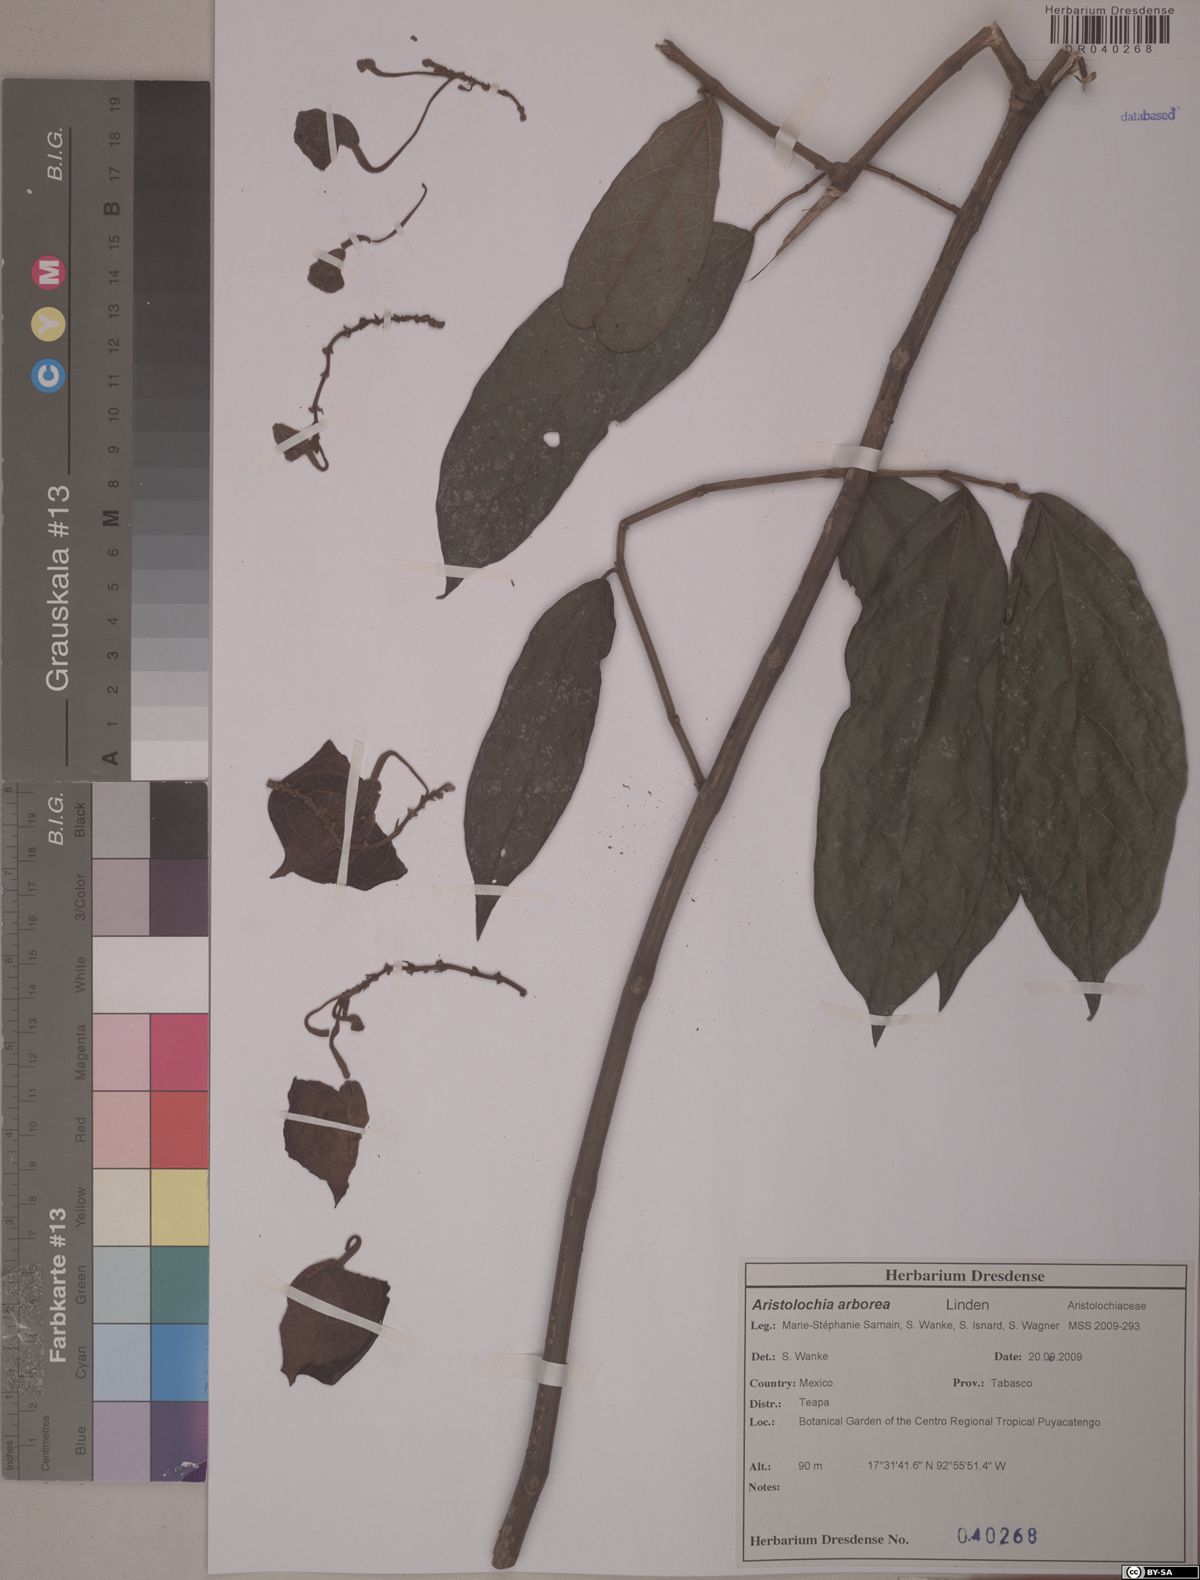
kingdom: Plantae
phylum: Tracheophyta
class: Magnoliopsida
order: Piperales
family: Aristolochiaceae
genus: Isotrema
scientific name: Isotrema arborea
